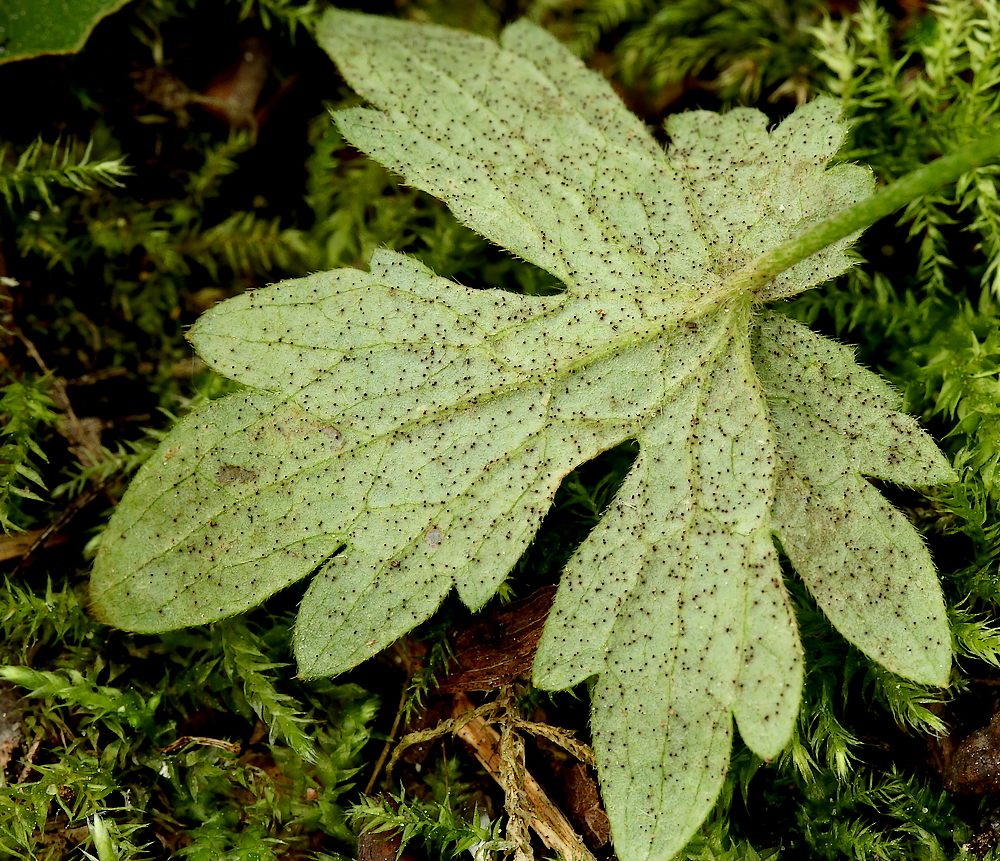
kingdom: Fungi
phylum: Ascomycota
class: Leotiomycetes
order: Helotiales
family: Erysiphaceae
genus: Podosphaera
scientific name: Podosphaera aphanis
